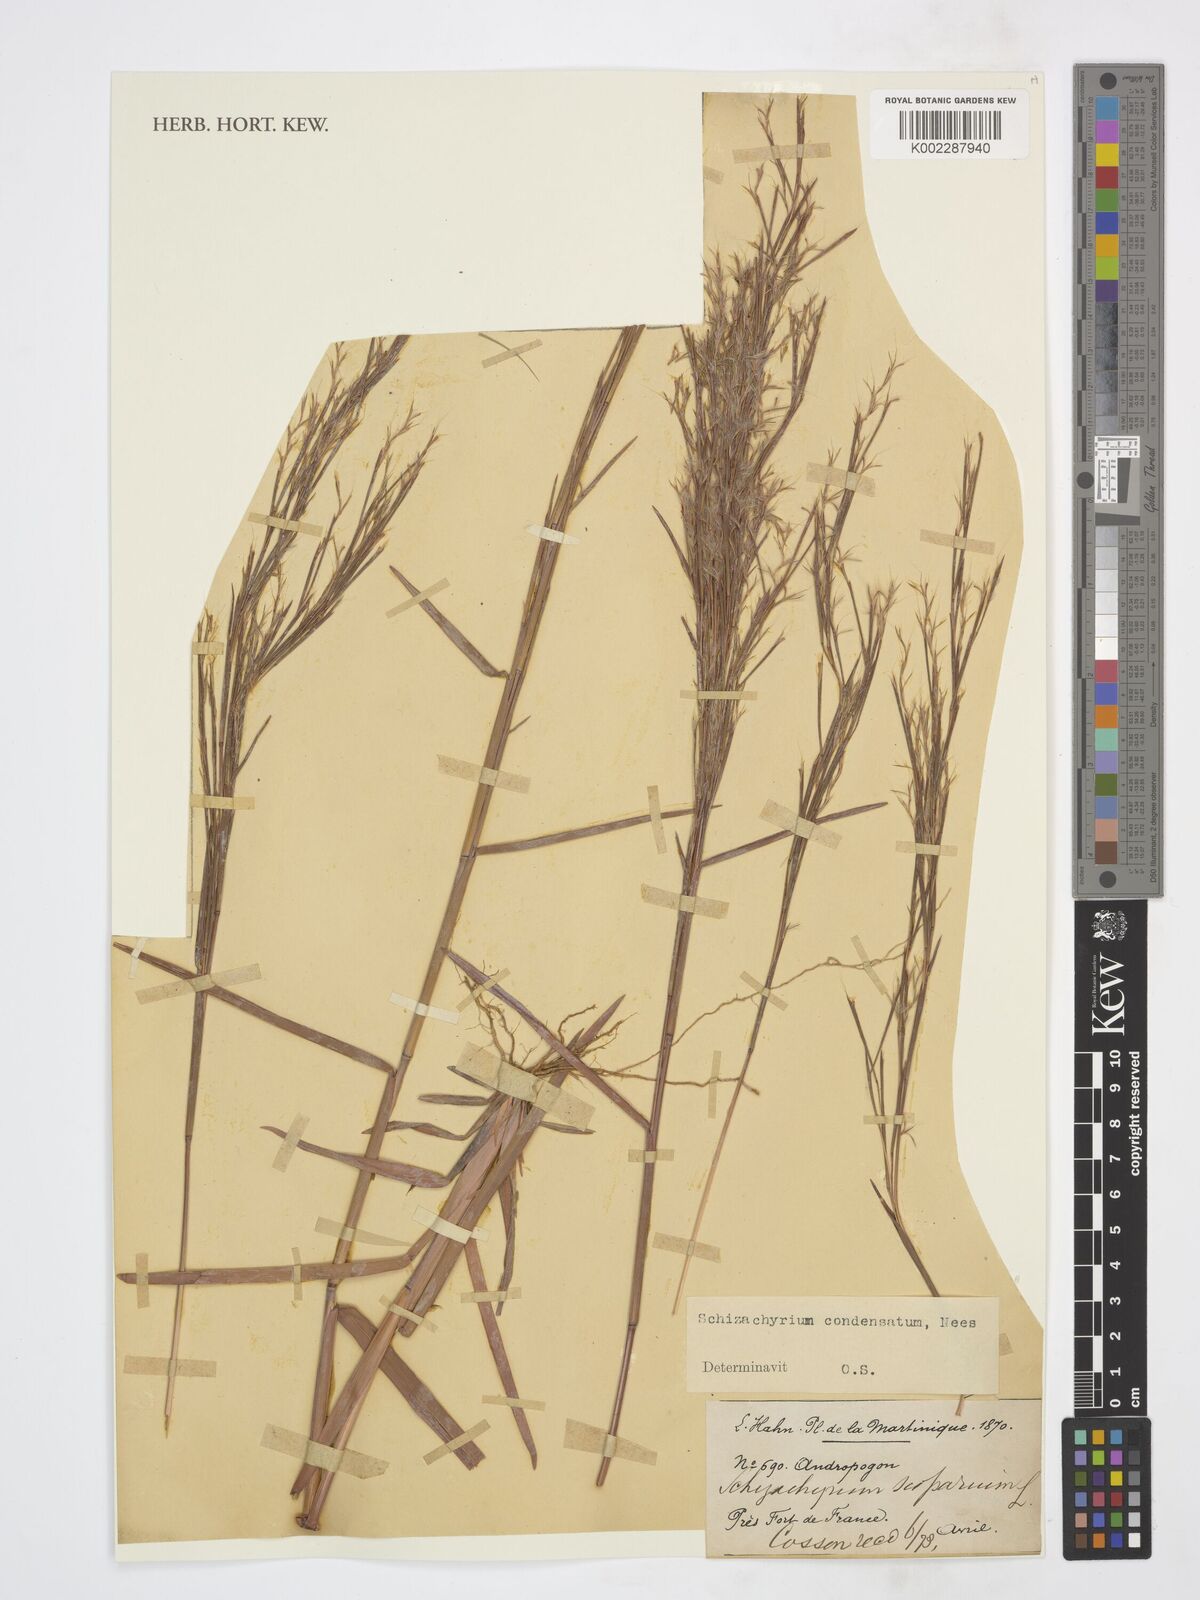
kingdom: Plantae
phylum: Tracheophyta
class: Liliopsida
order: Poales
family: Poaceae
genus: Schizachyrium
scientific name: Schizachyrium condensatum
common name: Bush beardgrass
